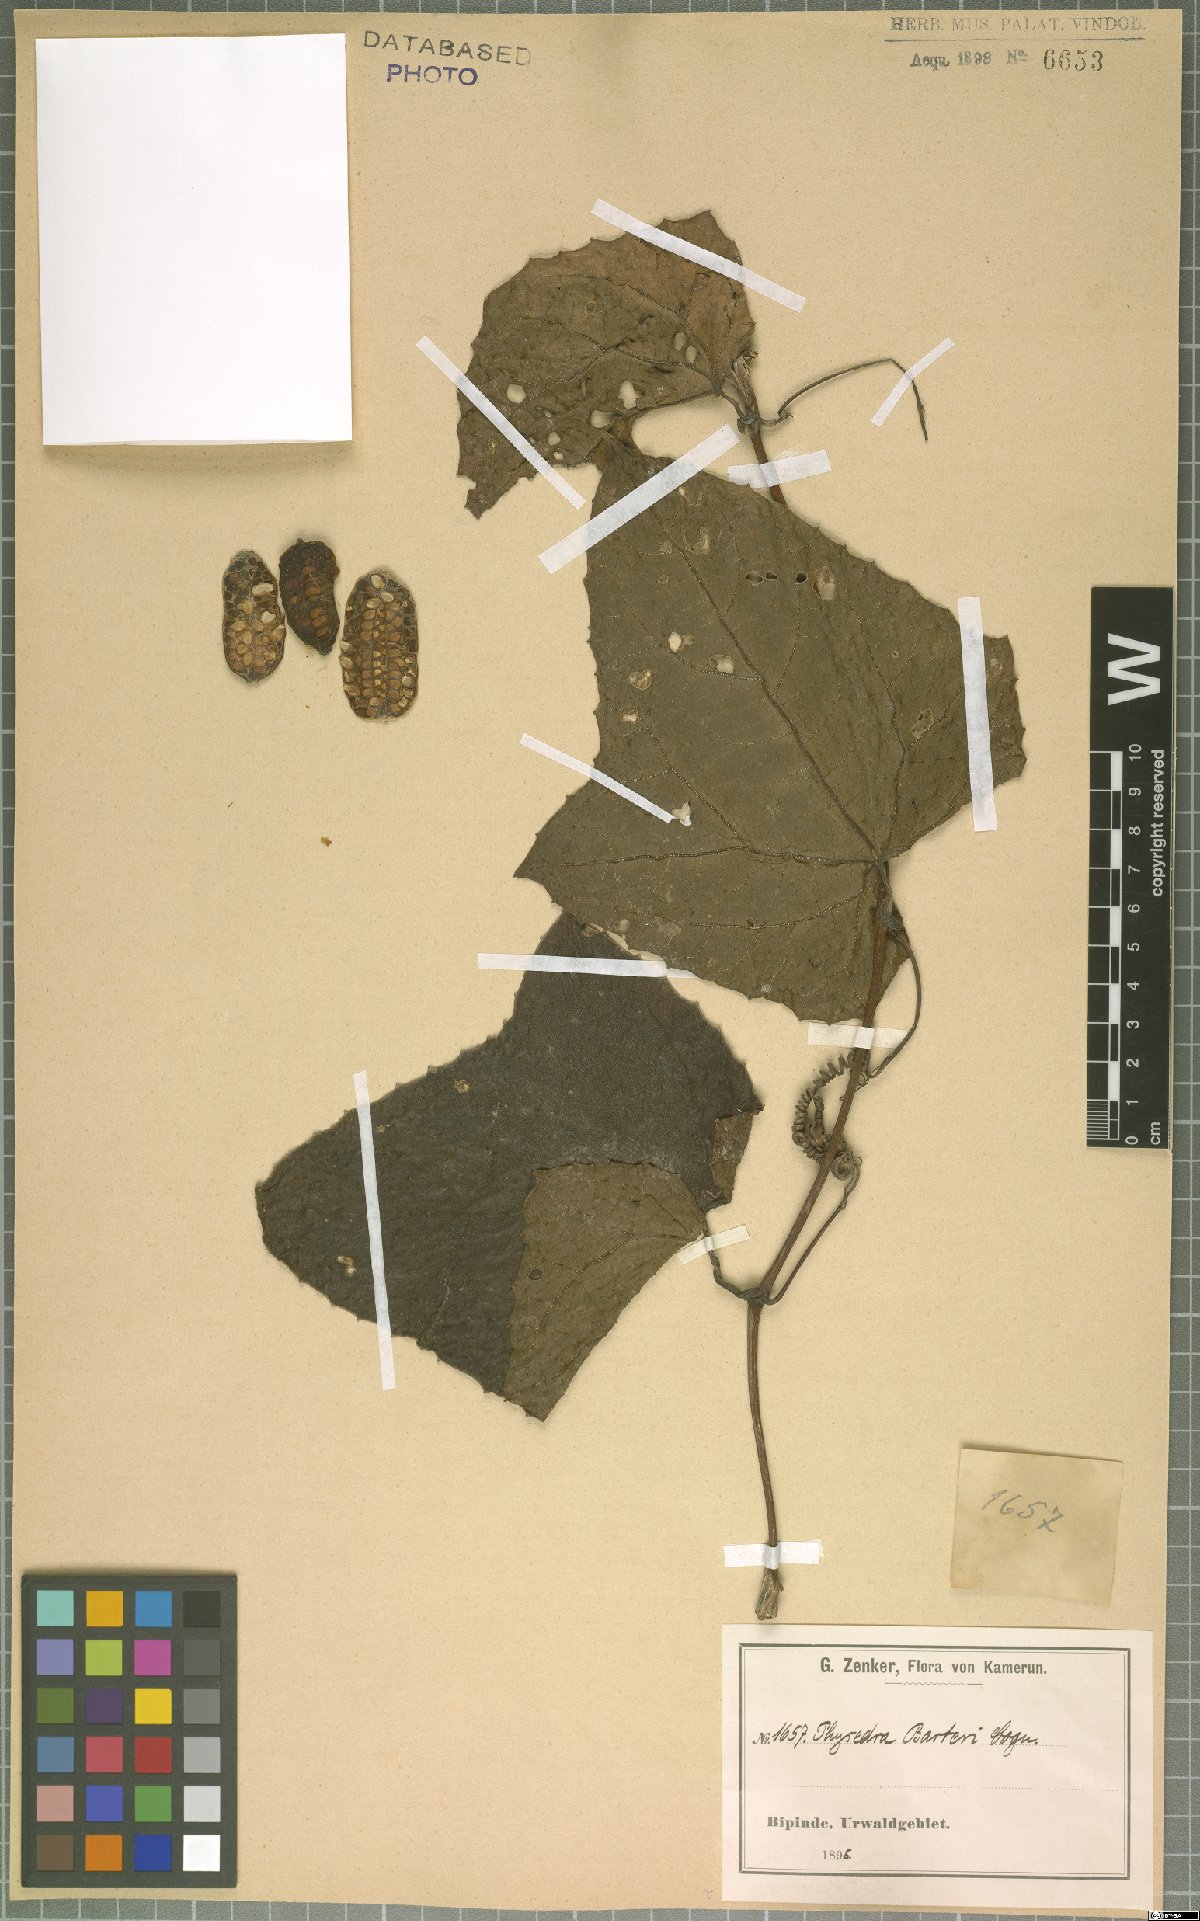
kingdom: Plantae
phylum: Tracheophyta
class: Magnoliopsida
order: Cucurbitales
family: Cucurbitaceae
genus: Coccinia
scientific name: Coccinia barteri
